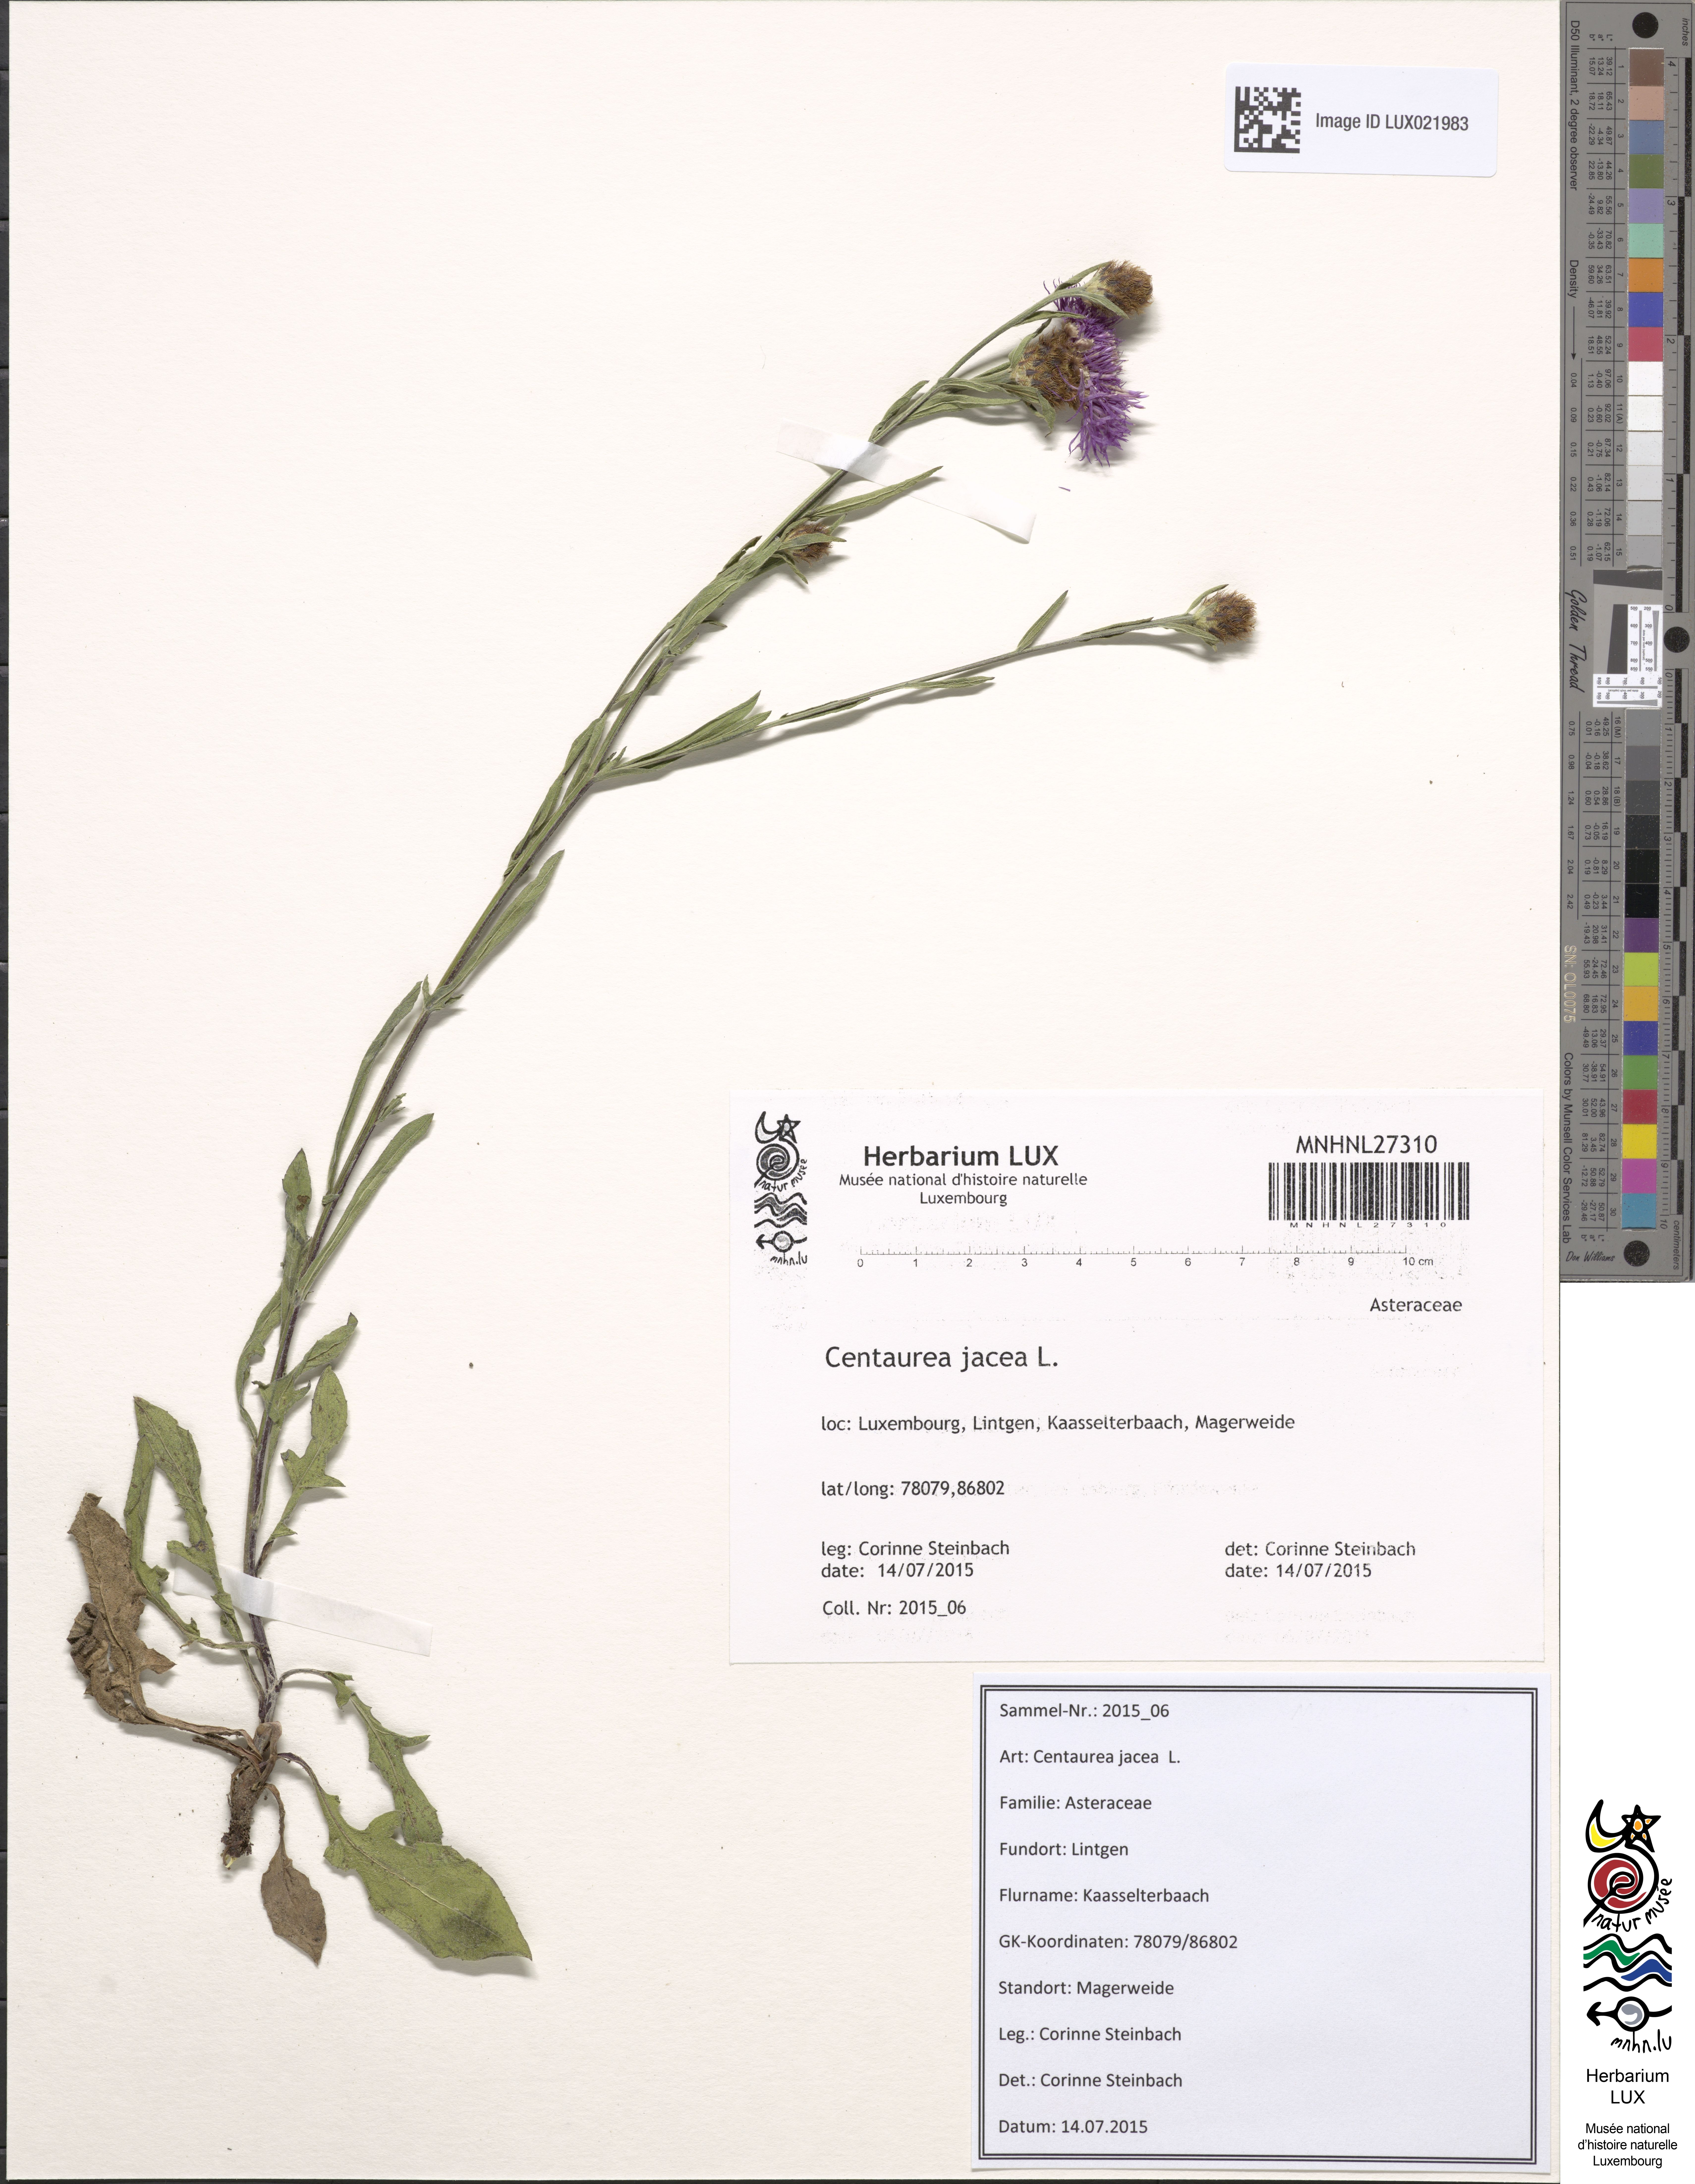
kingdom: Plantae
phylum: Tracheophyta
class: Magnoliopsida
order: Asterales
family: Asteraceae
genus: Centaurea
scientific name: Centaurea jacea
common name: Brown knapweed
